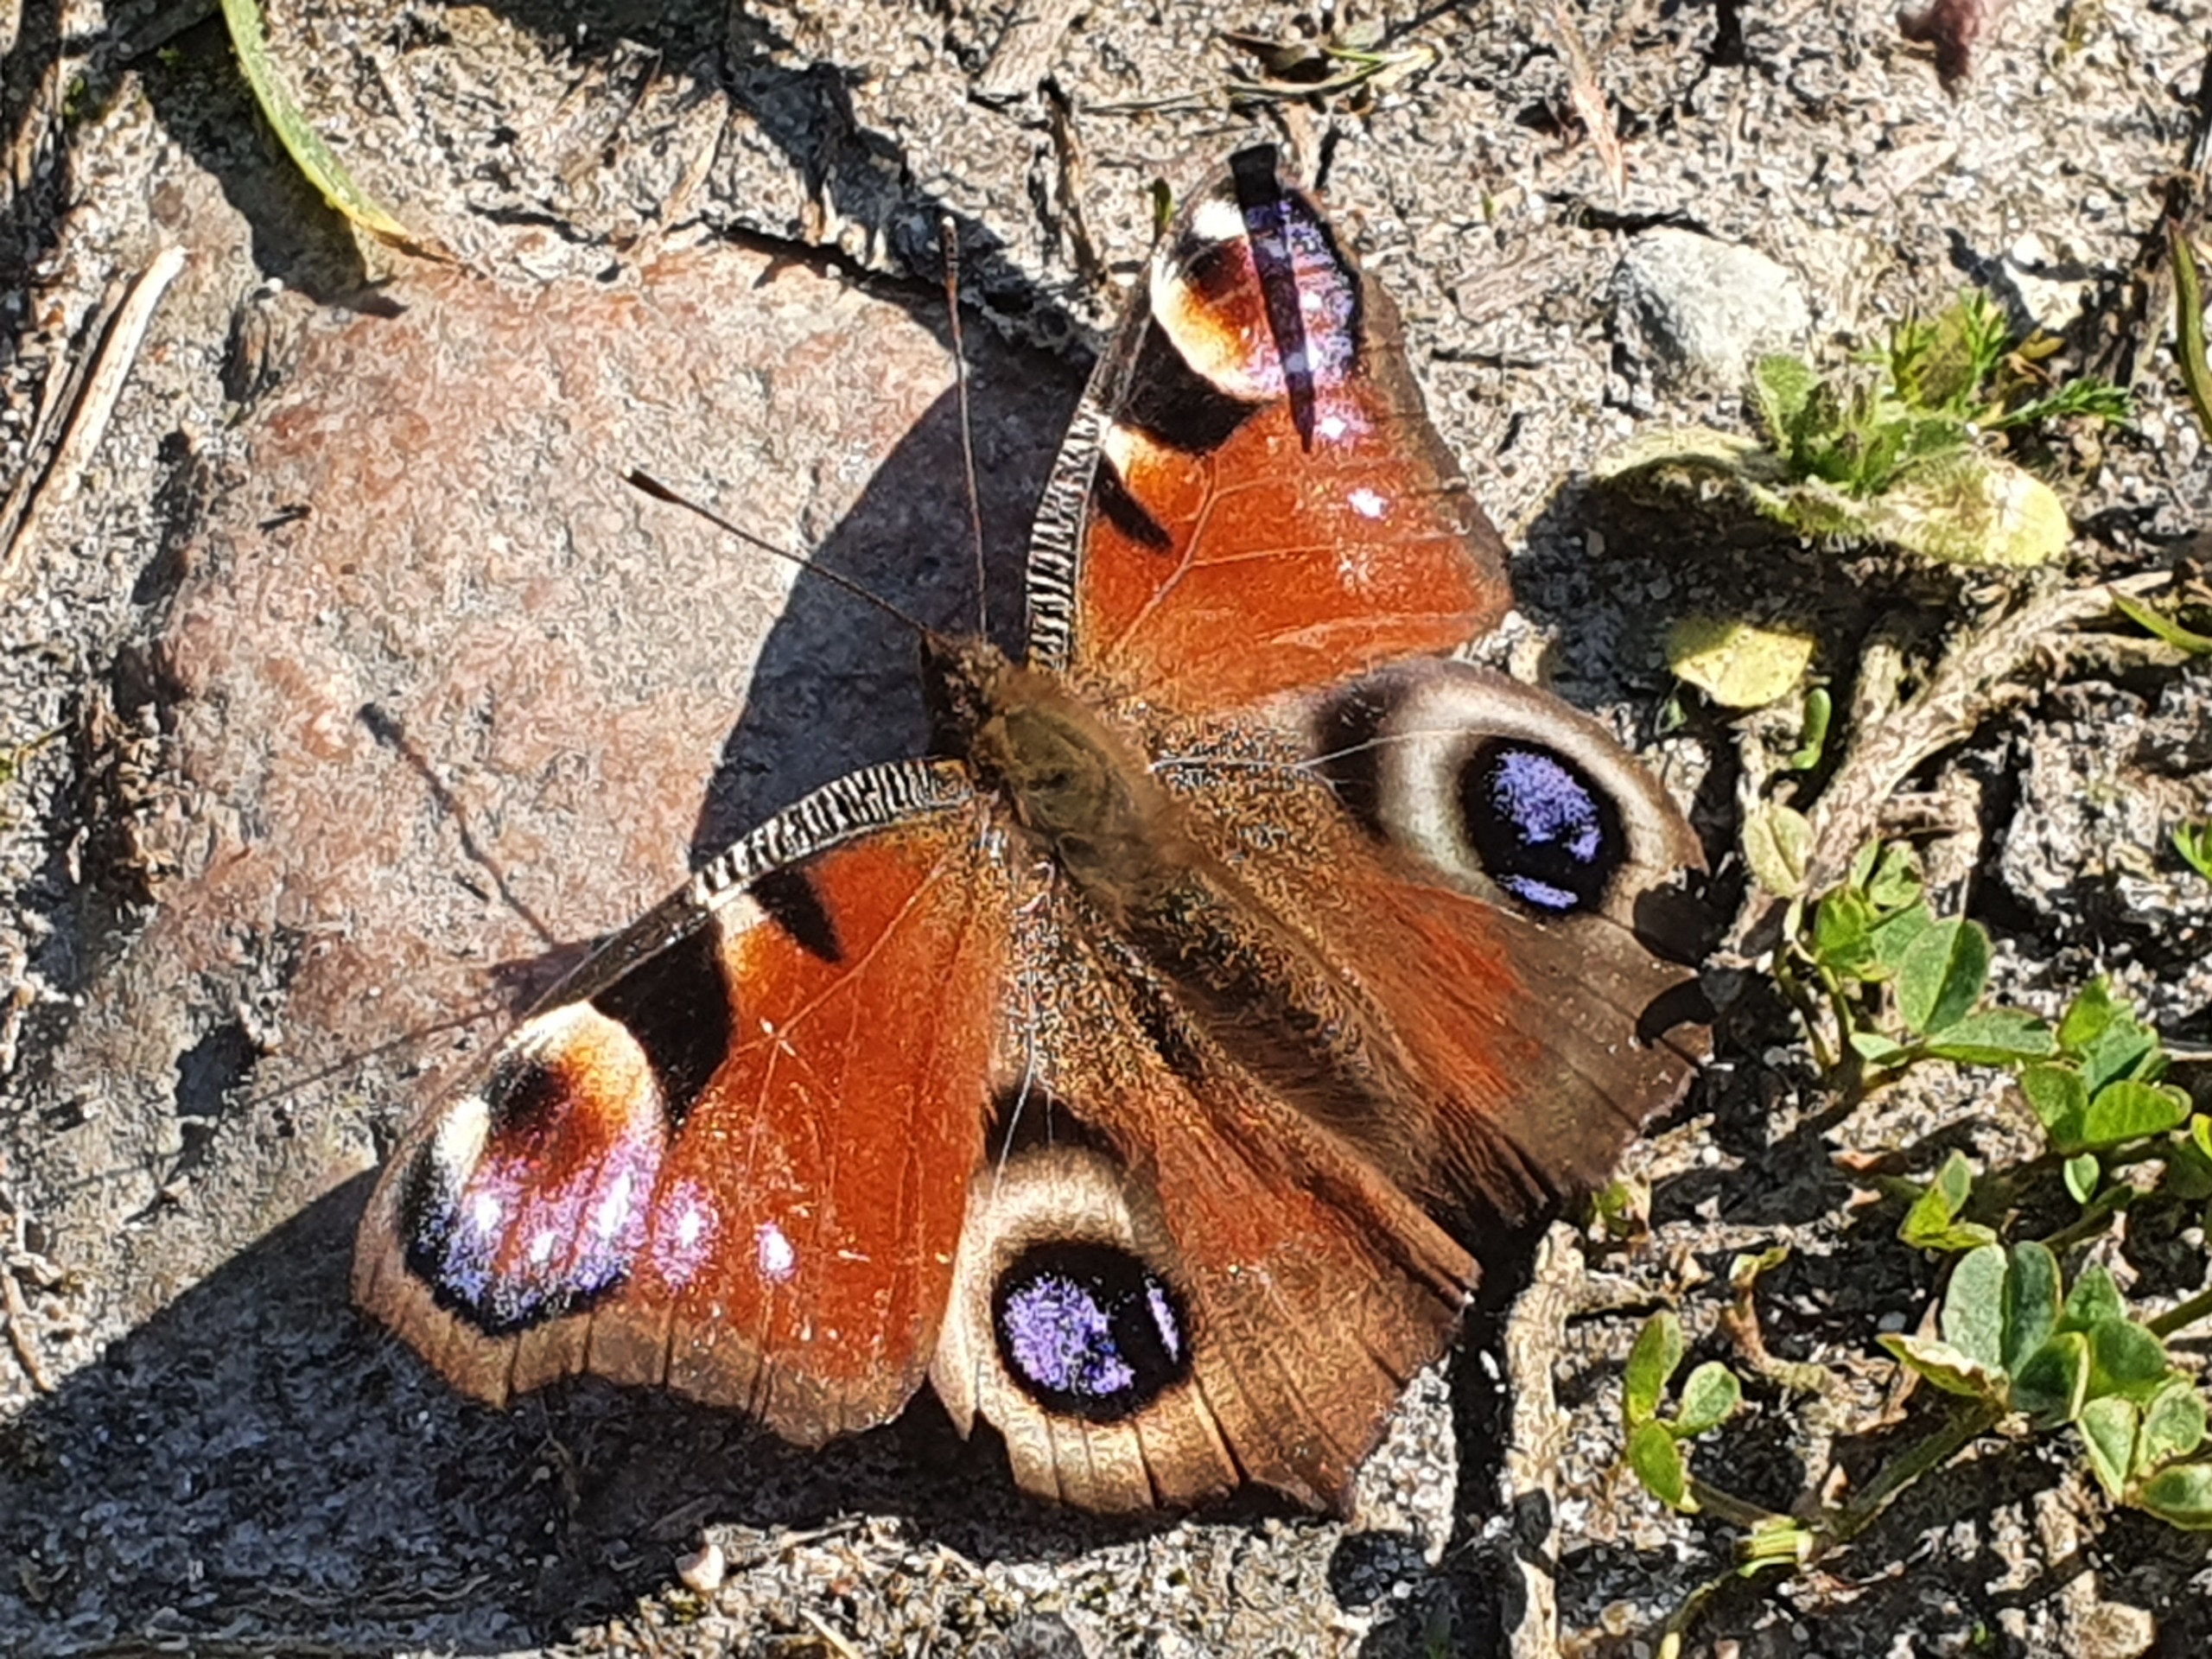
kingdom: Animalia
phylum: Arthropoda
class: Insecta
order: Lepidoptera
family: Nymphalidae
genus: Aglais
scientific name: Aglais io
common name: Dagpåfugleøje
